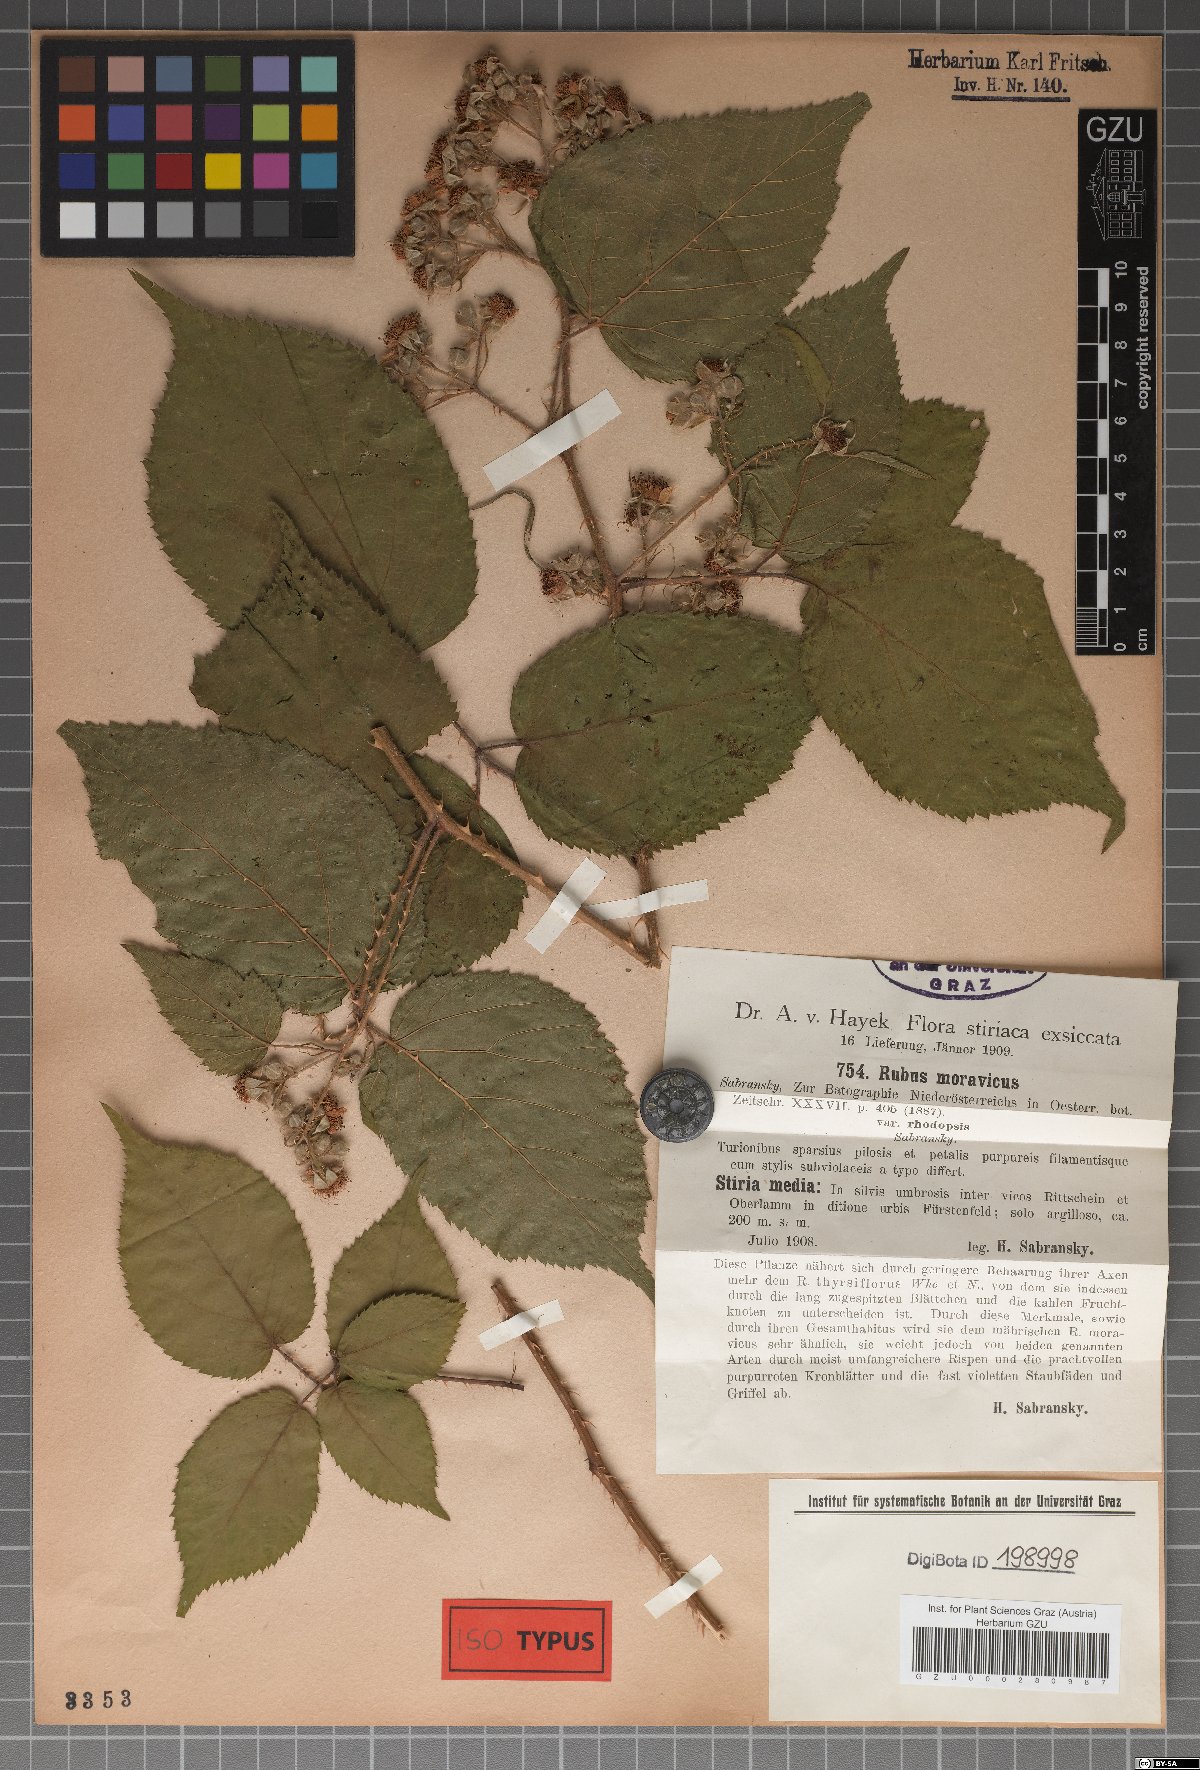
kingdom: Plantae
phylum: Tracheophyta
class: Magnoliopsida
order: Rosales
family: Rosaceae
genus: Rubus
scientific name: Rubus moravicus
